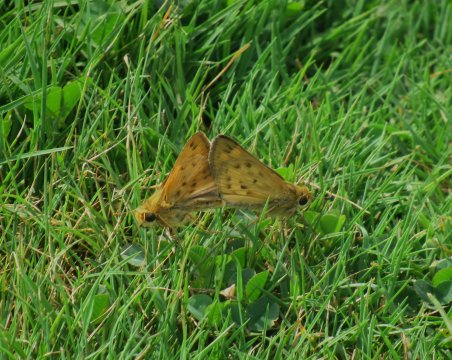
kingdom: Animalia
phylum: Arthropoda
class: Insecta
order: Lepidoptera
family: Hesperiidae
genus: Hylephila
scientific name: Hylephila phyleus
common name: Fiery Skipper
